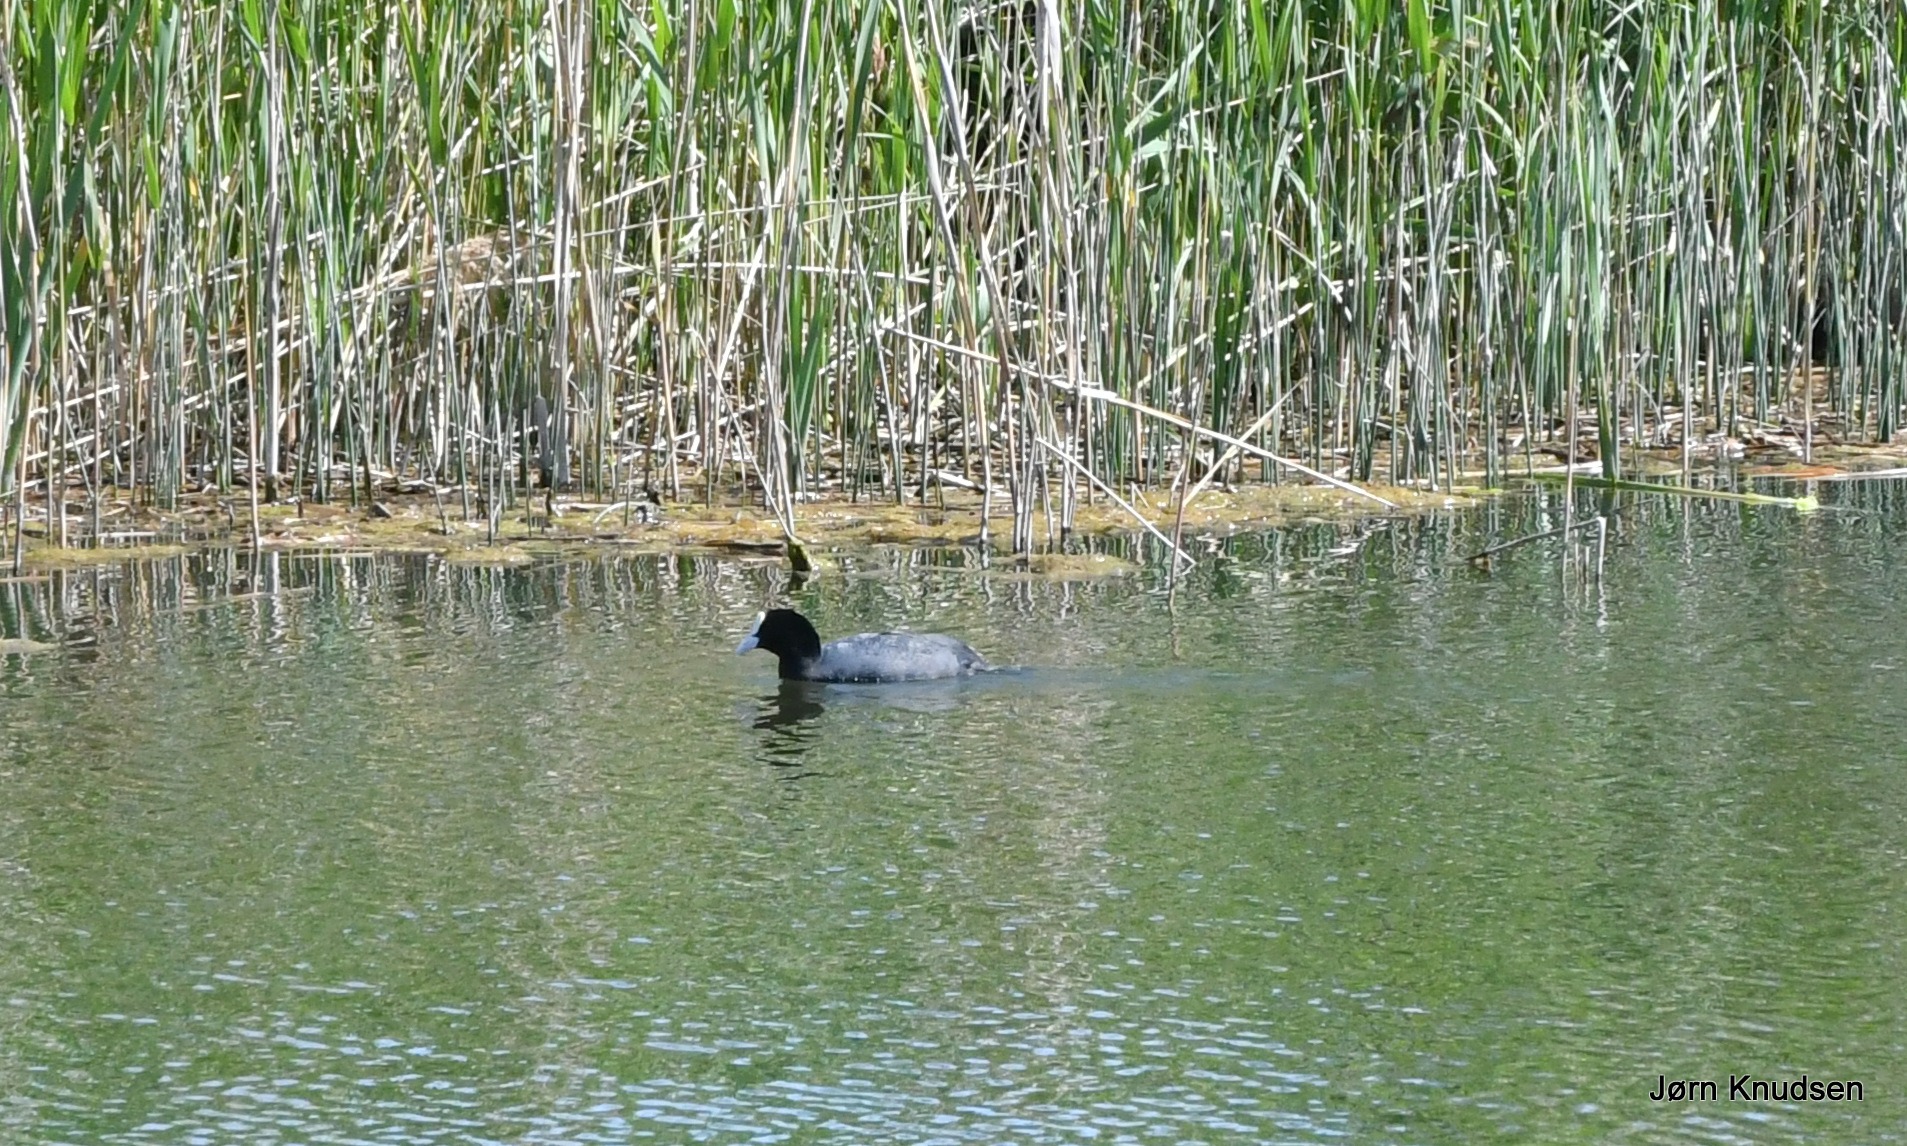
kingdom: Animalia
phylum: Chordata
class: Aves
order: Gruiformes
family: Rallidae
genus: Fulica
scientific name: Fulica atra
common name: Blishøne
